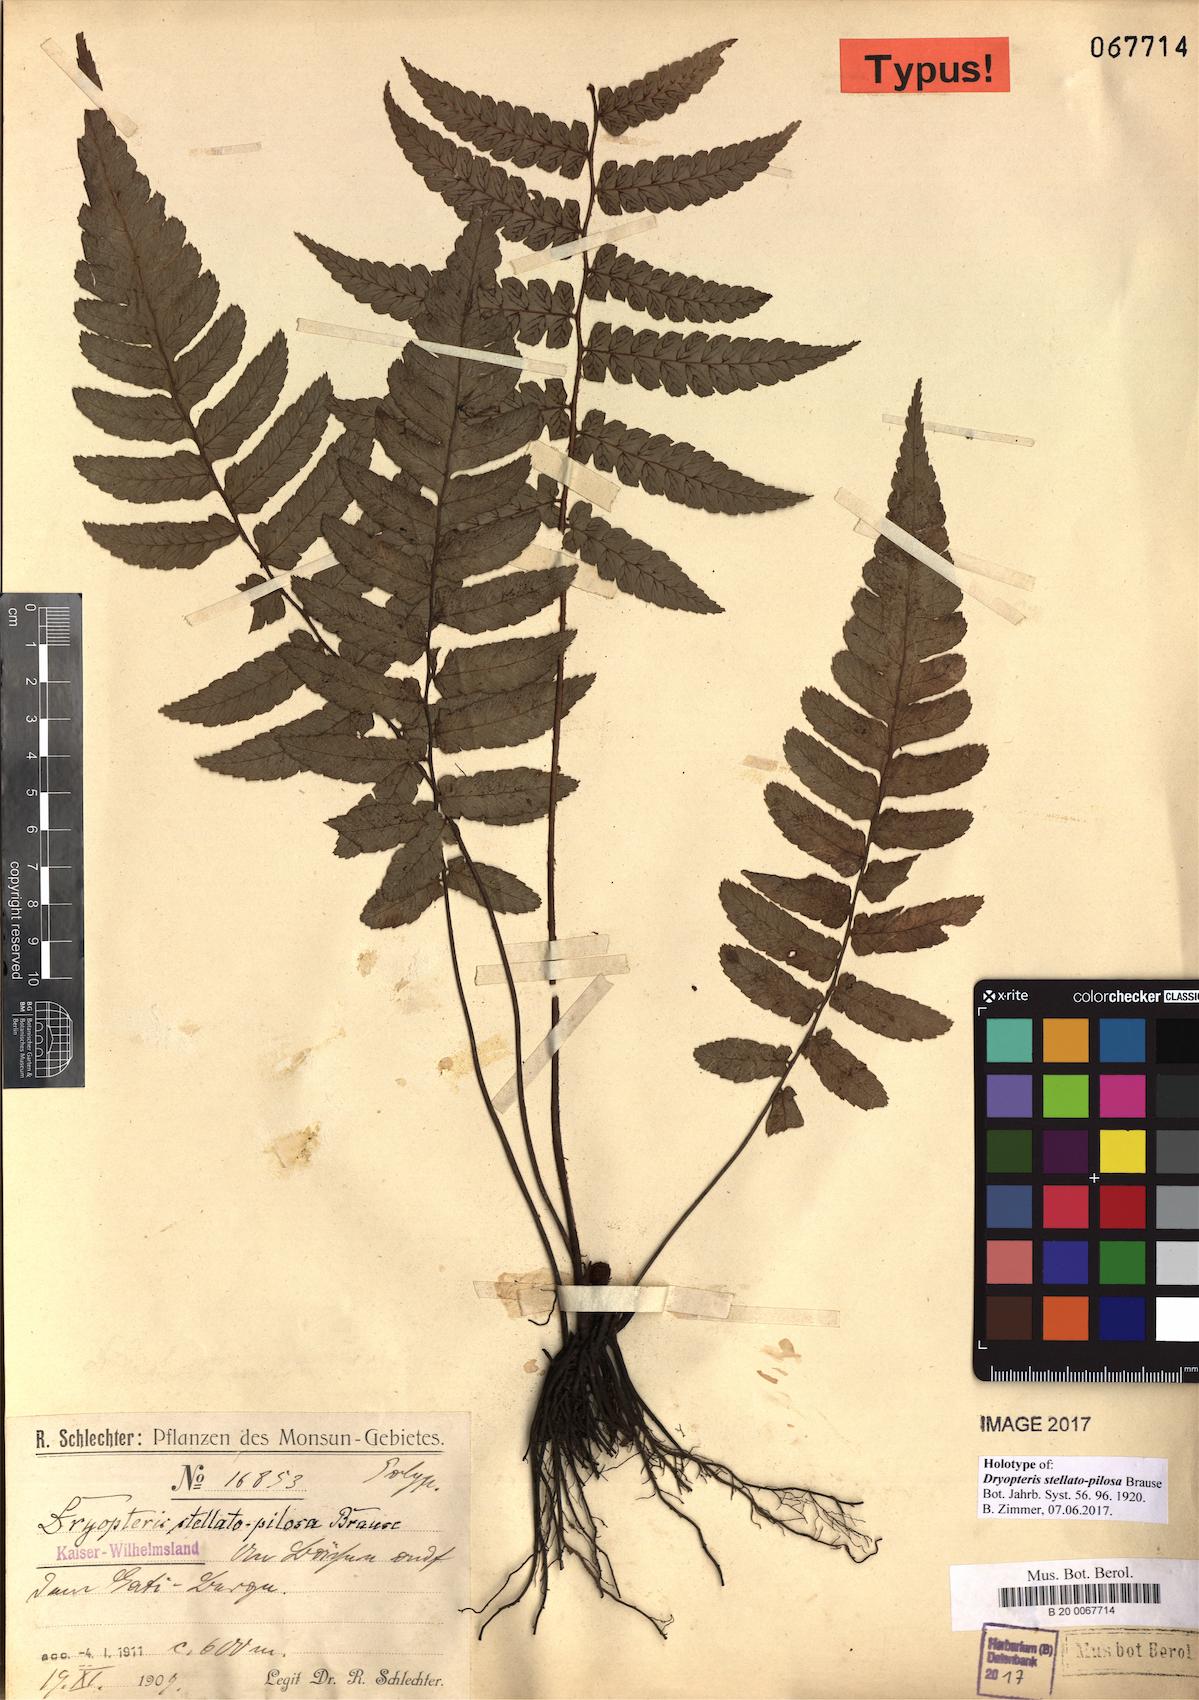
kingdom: Plantae
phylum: Tracheophyta
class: Polypodiopsida
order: Polypodiales
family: Athyriaceae
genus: Diplazium
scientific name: Diplazium stellatopilosum
